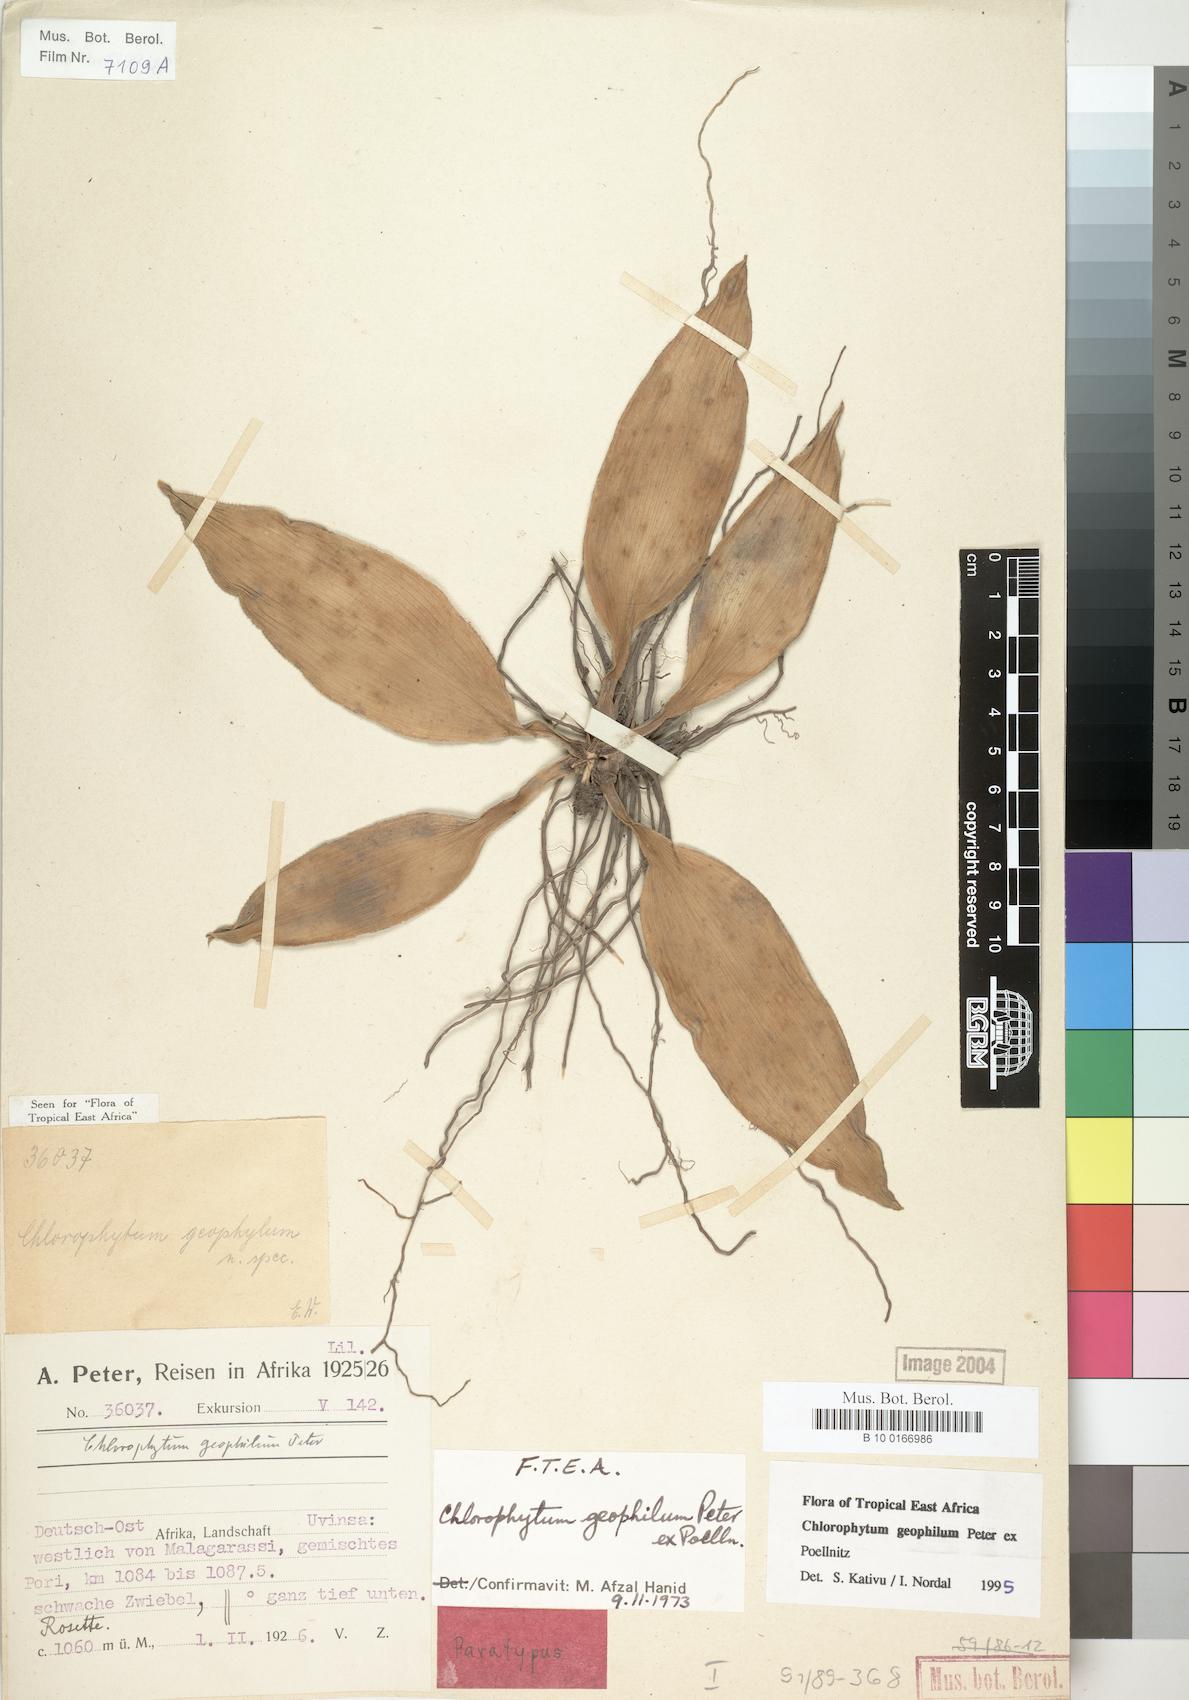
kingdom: Plantae
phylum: Tracheophyta
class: Liliopsida
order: Asparagales
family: Asparagaceae
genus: Chlorophytum
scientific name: Chlorophytum geophilum
